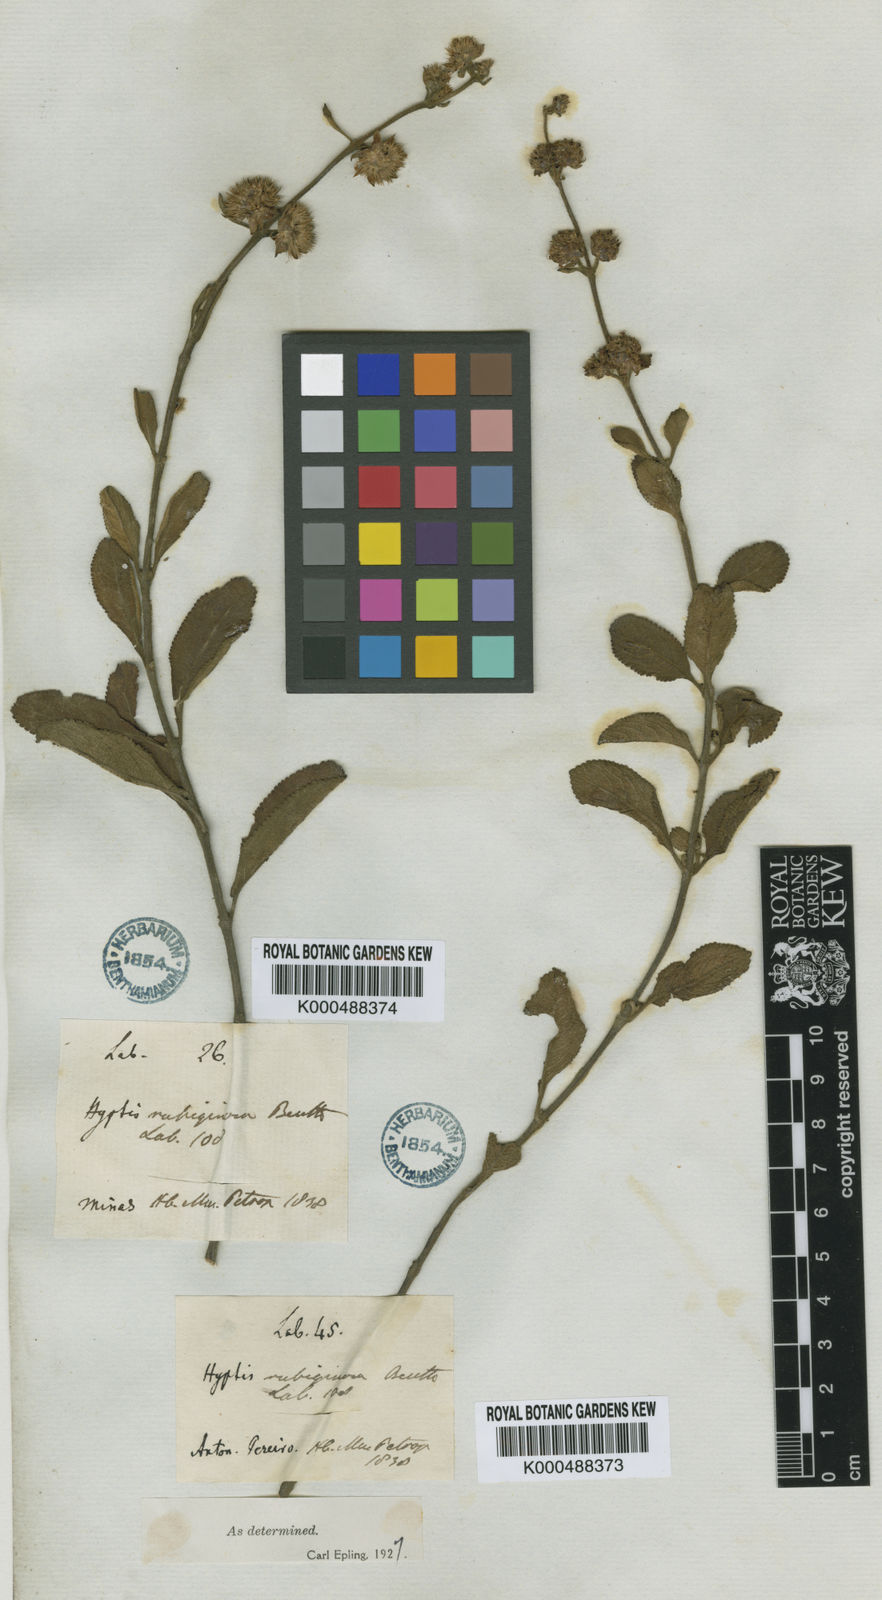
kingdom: Plantae
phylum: Tracheophyta
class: Magnoliopsida
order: Lamiales
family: Lamiaceae
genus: Hyptis
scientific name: Hyptis rubiginosa
